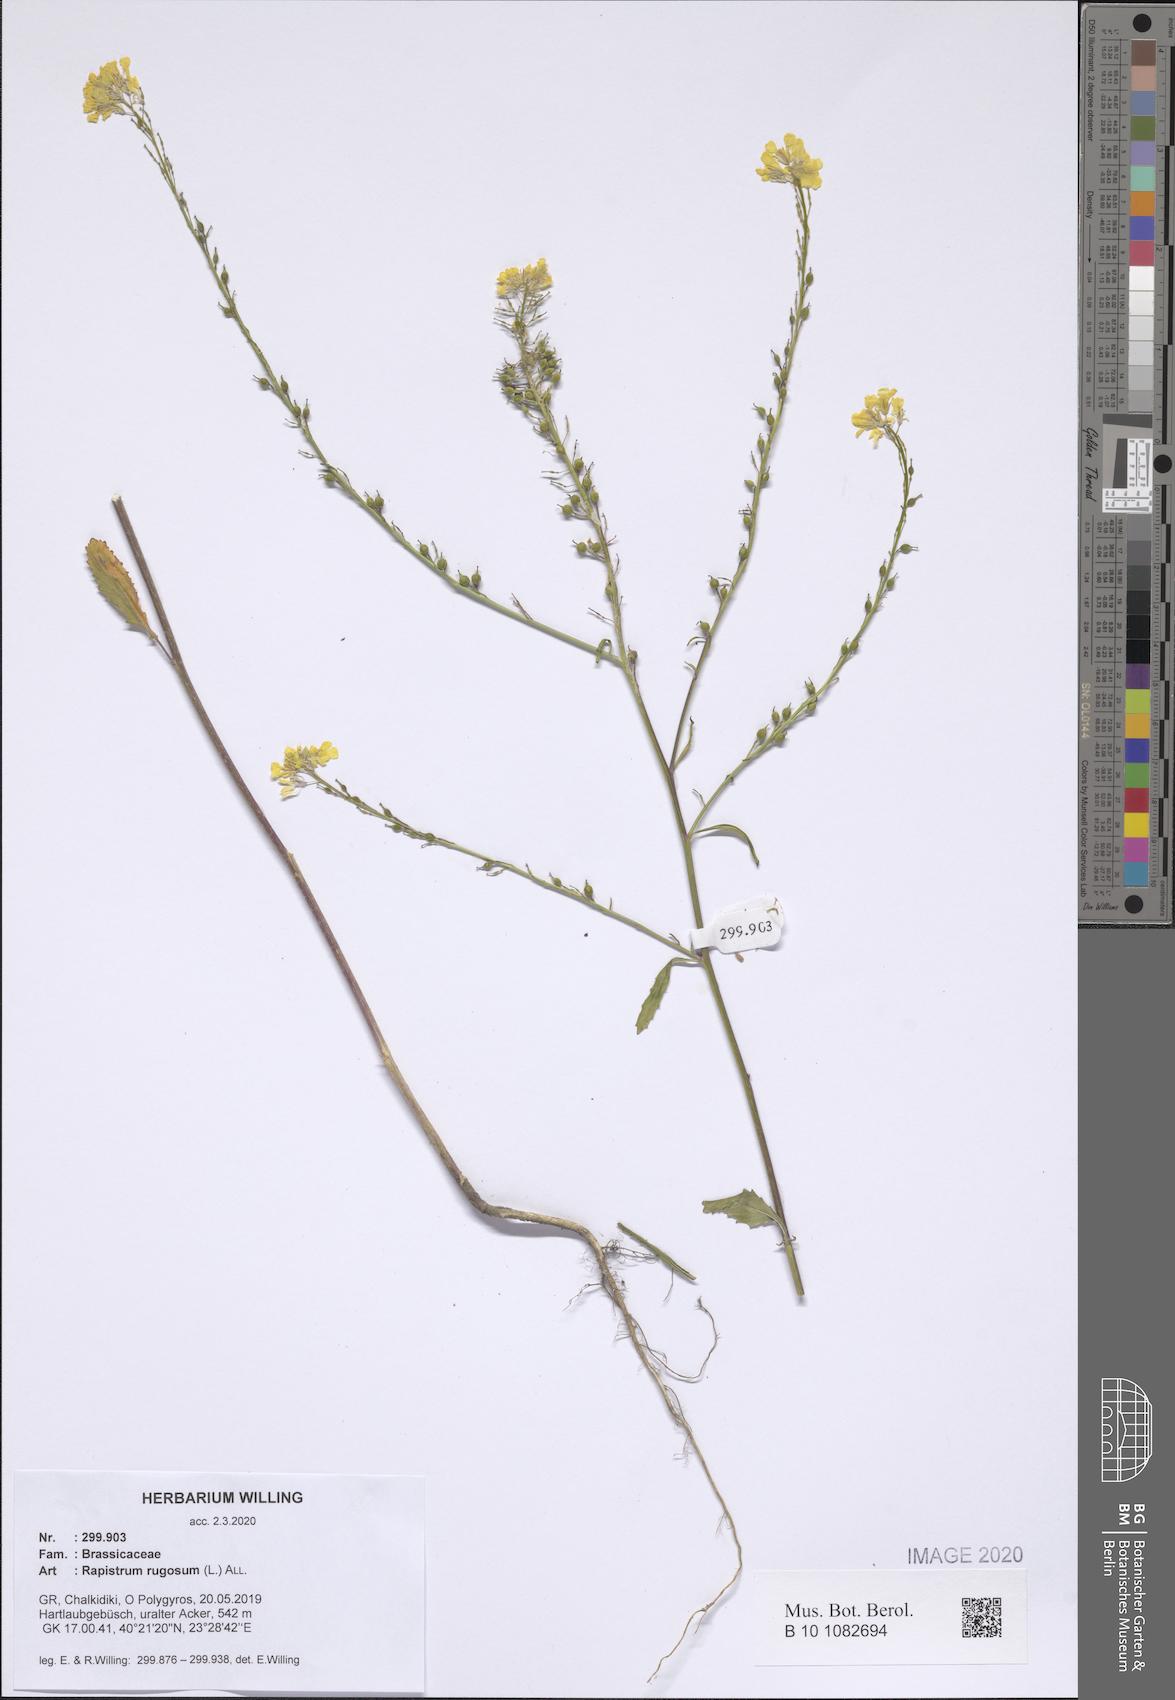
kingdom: Plantae
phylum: Tracheophyta
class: Magnoliopsida
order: Brassicales
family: Brassicaceae
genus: Rapistrum
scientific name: Rapistrum rugosum
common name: Annual bastardcabbage
